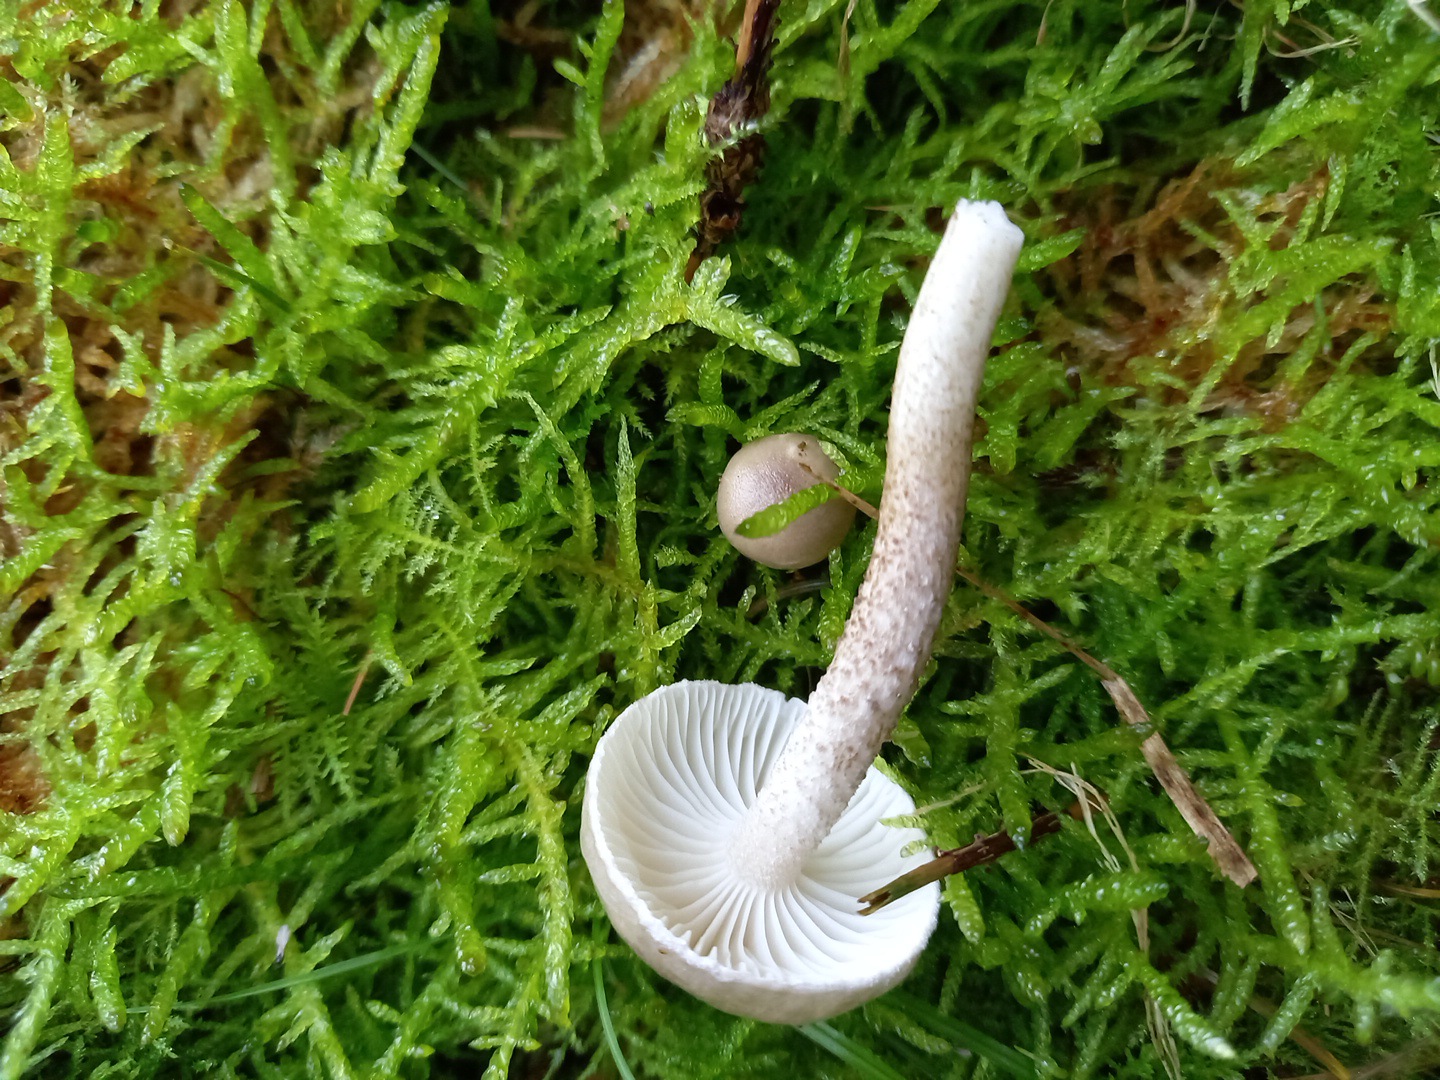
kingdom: Fungi
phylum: Basidiomycota
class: Agaricomycetes
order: Agaricales
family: Hygrophoraceae
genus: Hygrophorus
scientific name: Hygrophorus pustulatus
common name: mørkprikket sneglehat
